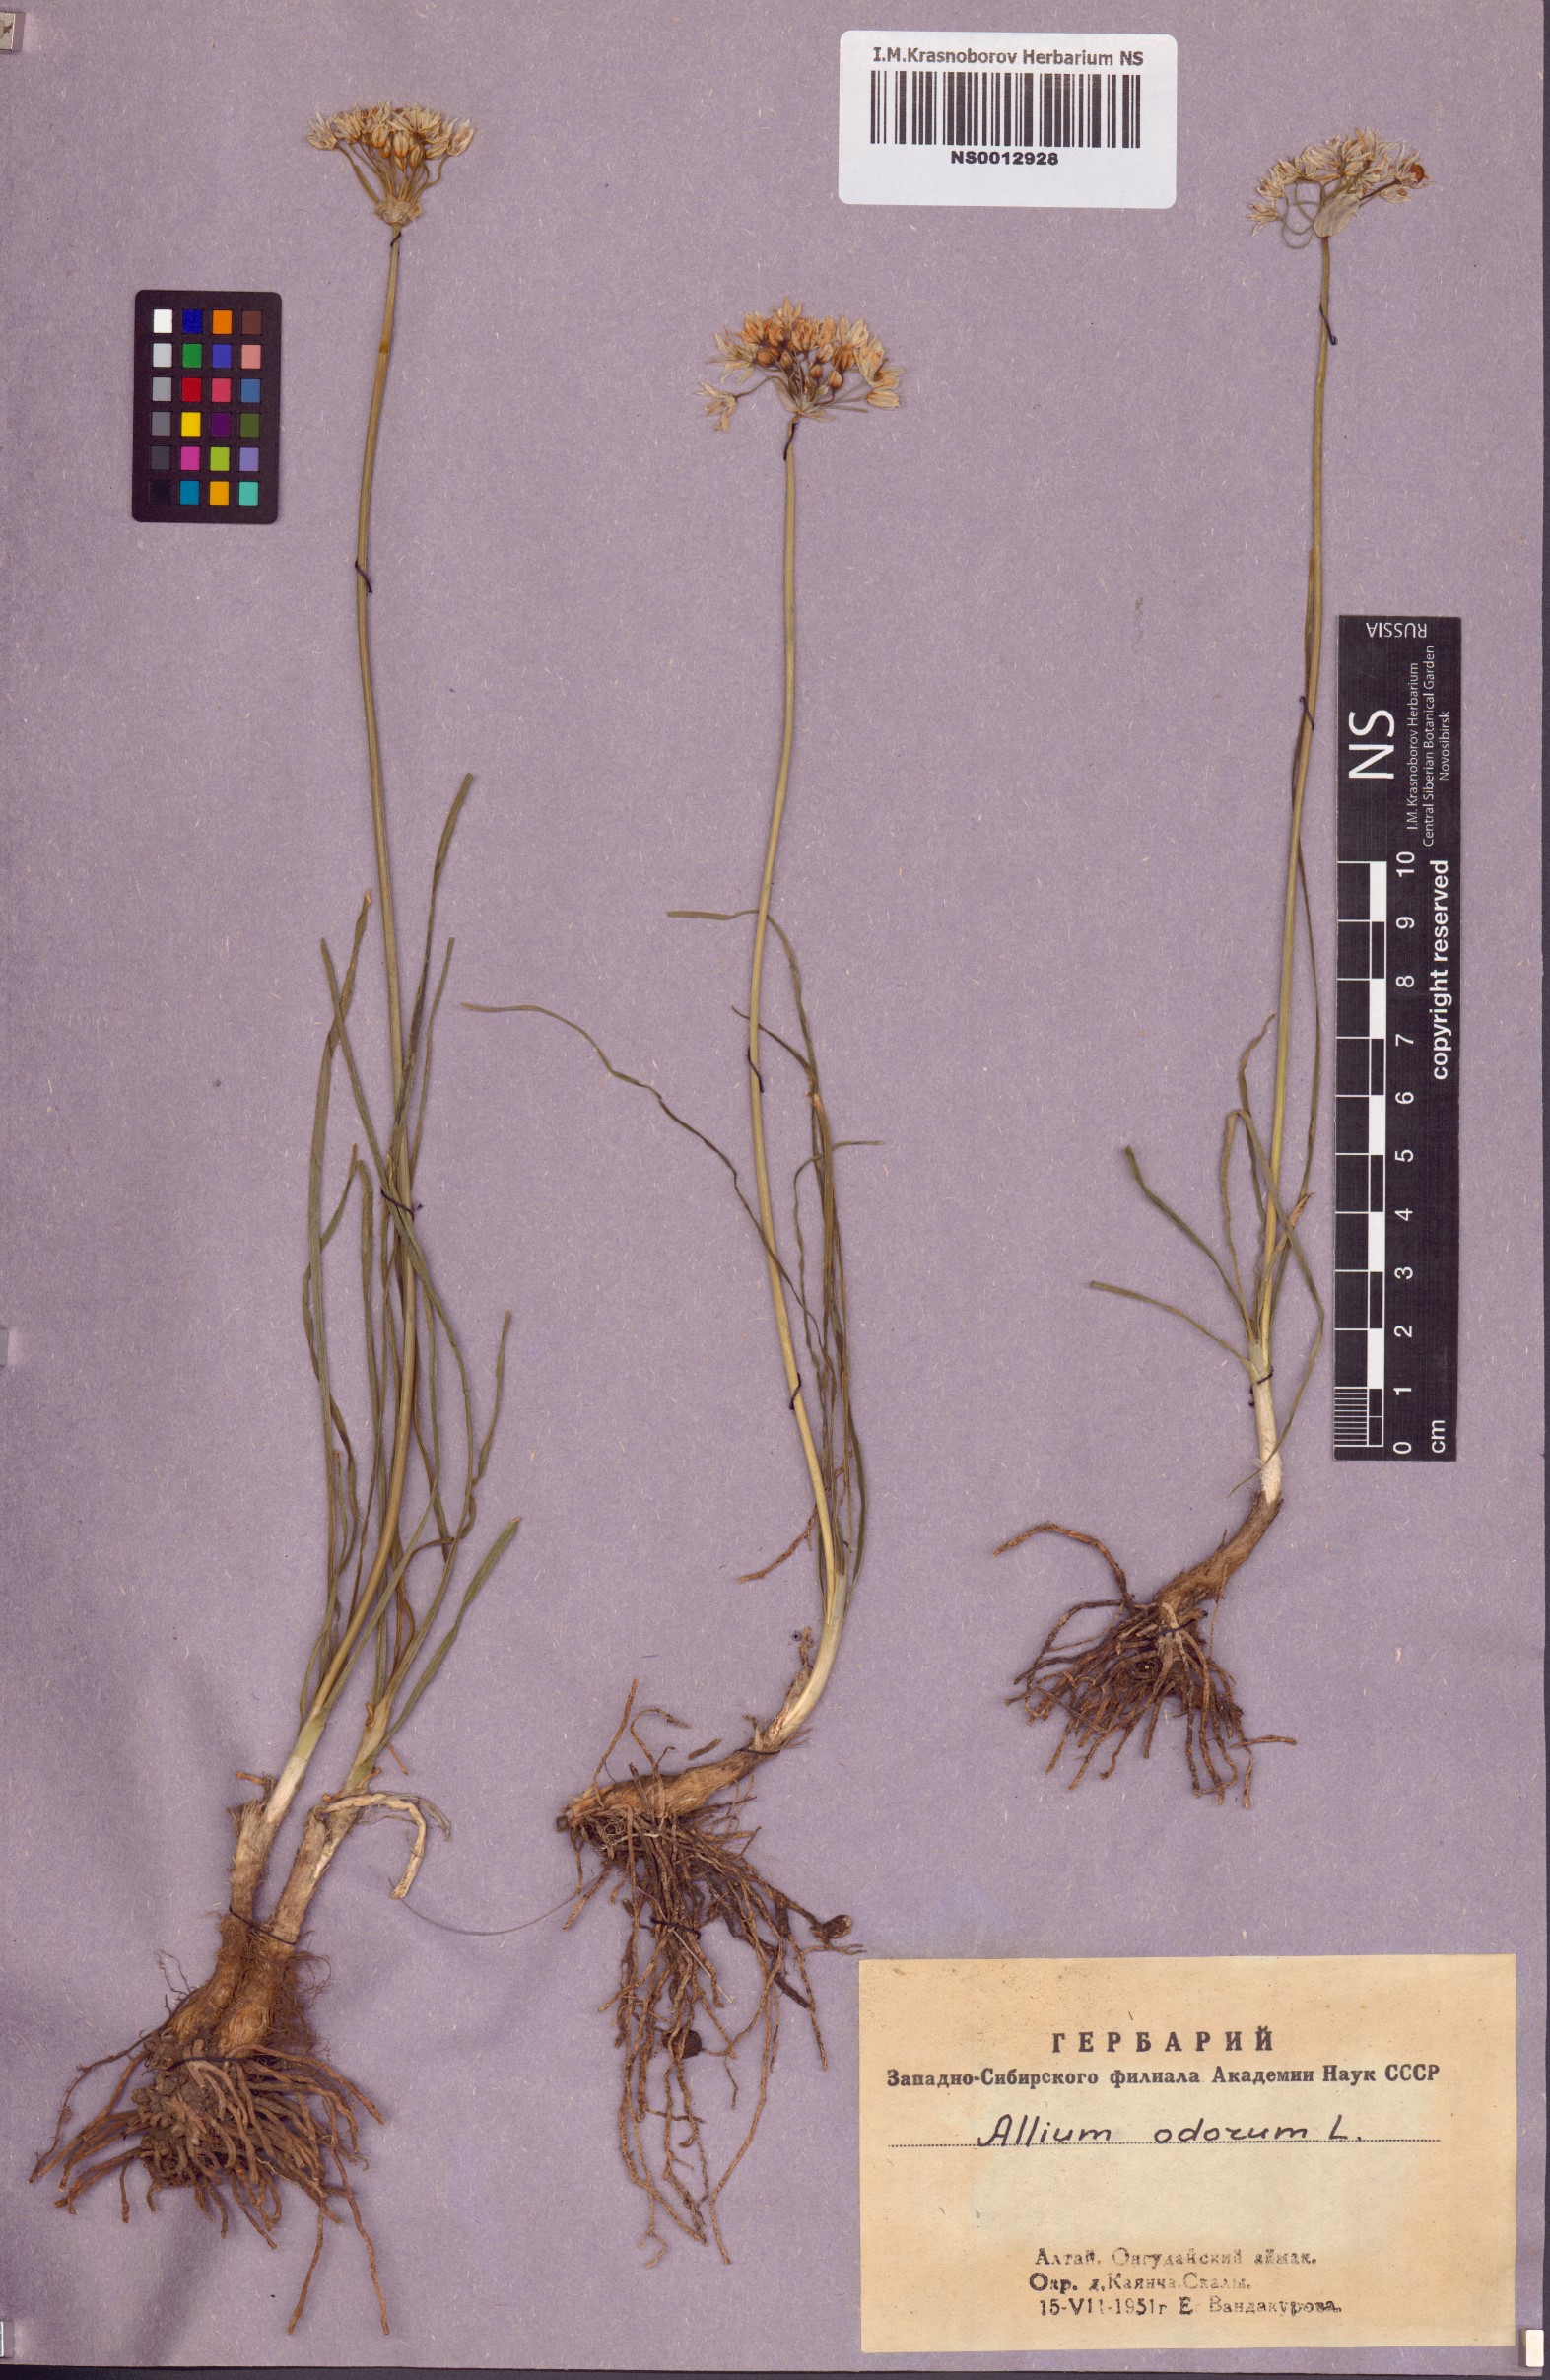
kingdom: Plantae
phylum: Tracheophyta
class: Liliopsida
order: Asparagales
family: Amaryllidaceae
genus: Allium
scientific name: Allium ramosum
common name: Fragrant garlic
